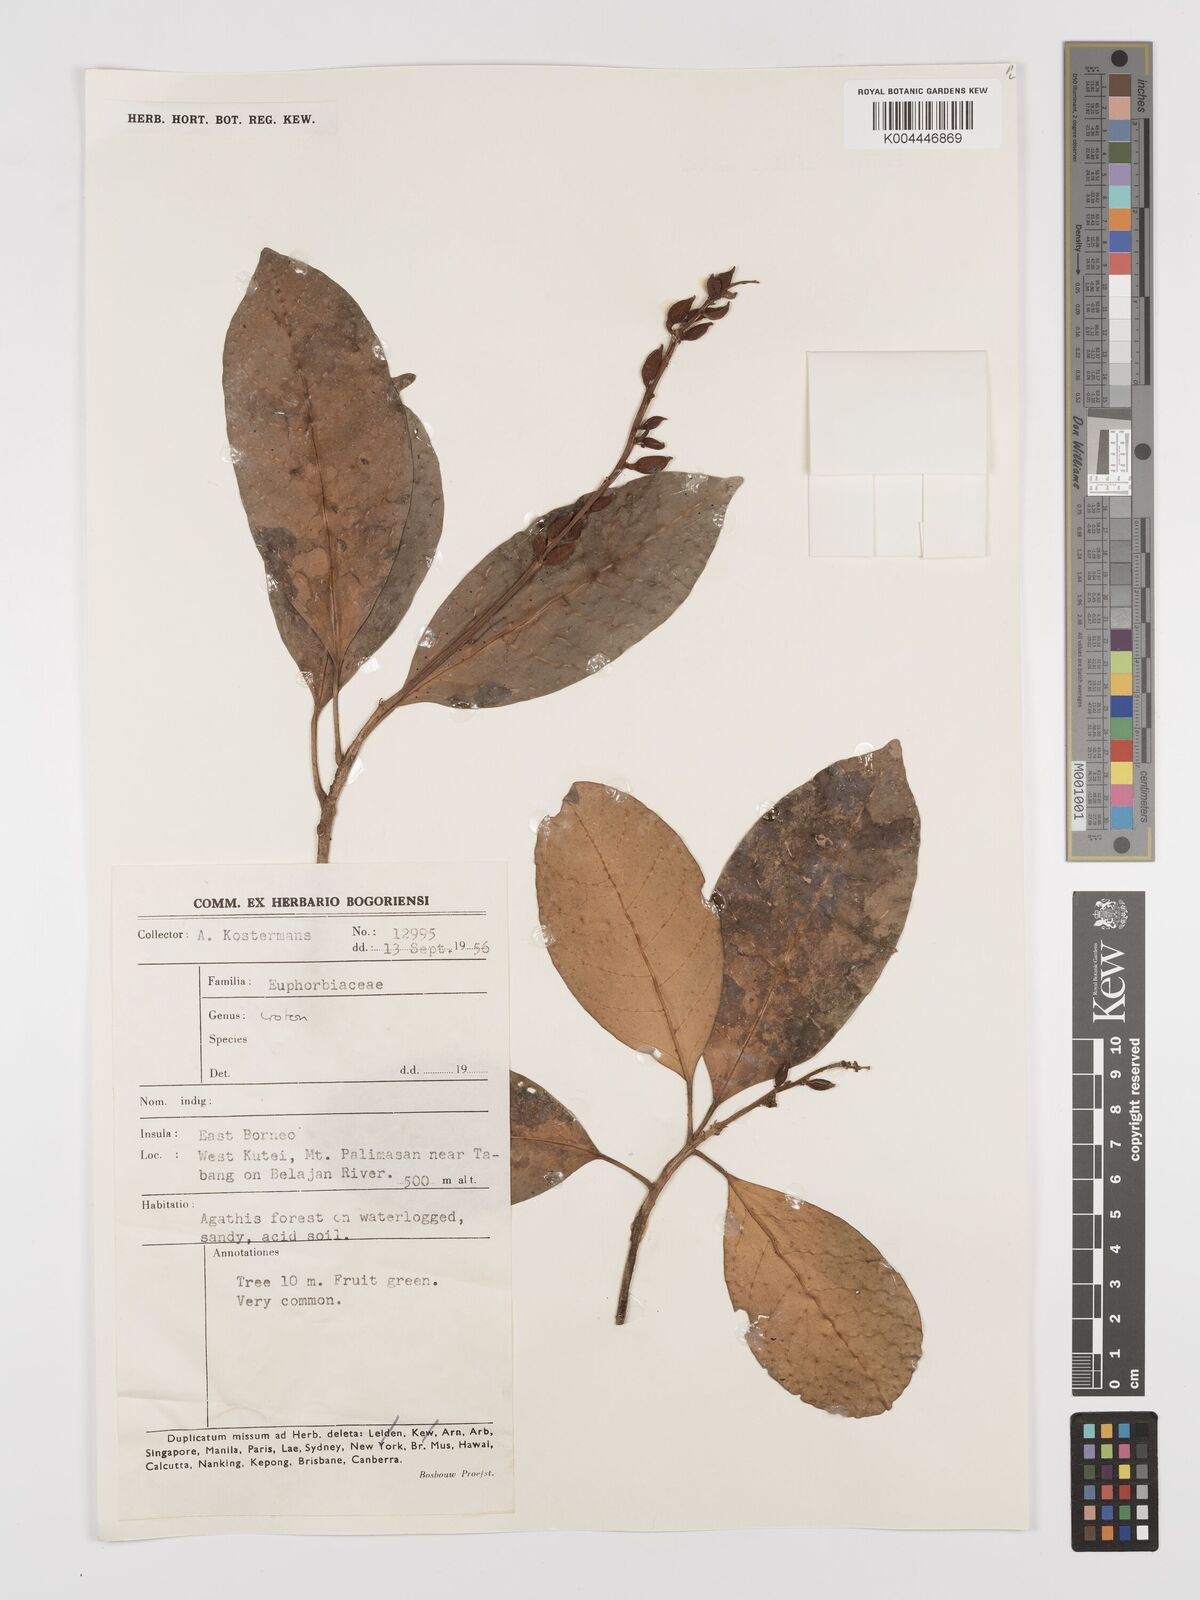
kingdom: Plantae
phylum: Tracheophyta
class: Magnoliopsida
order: Malpighiales
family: Euphorbiaceae
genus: Croton
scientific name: Croton oblongus
